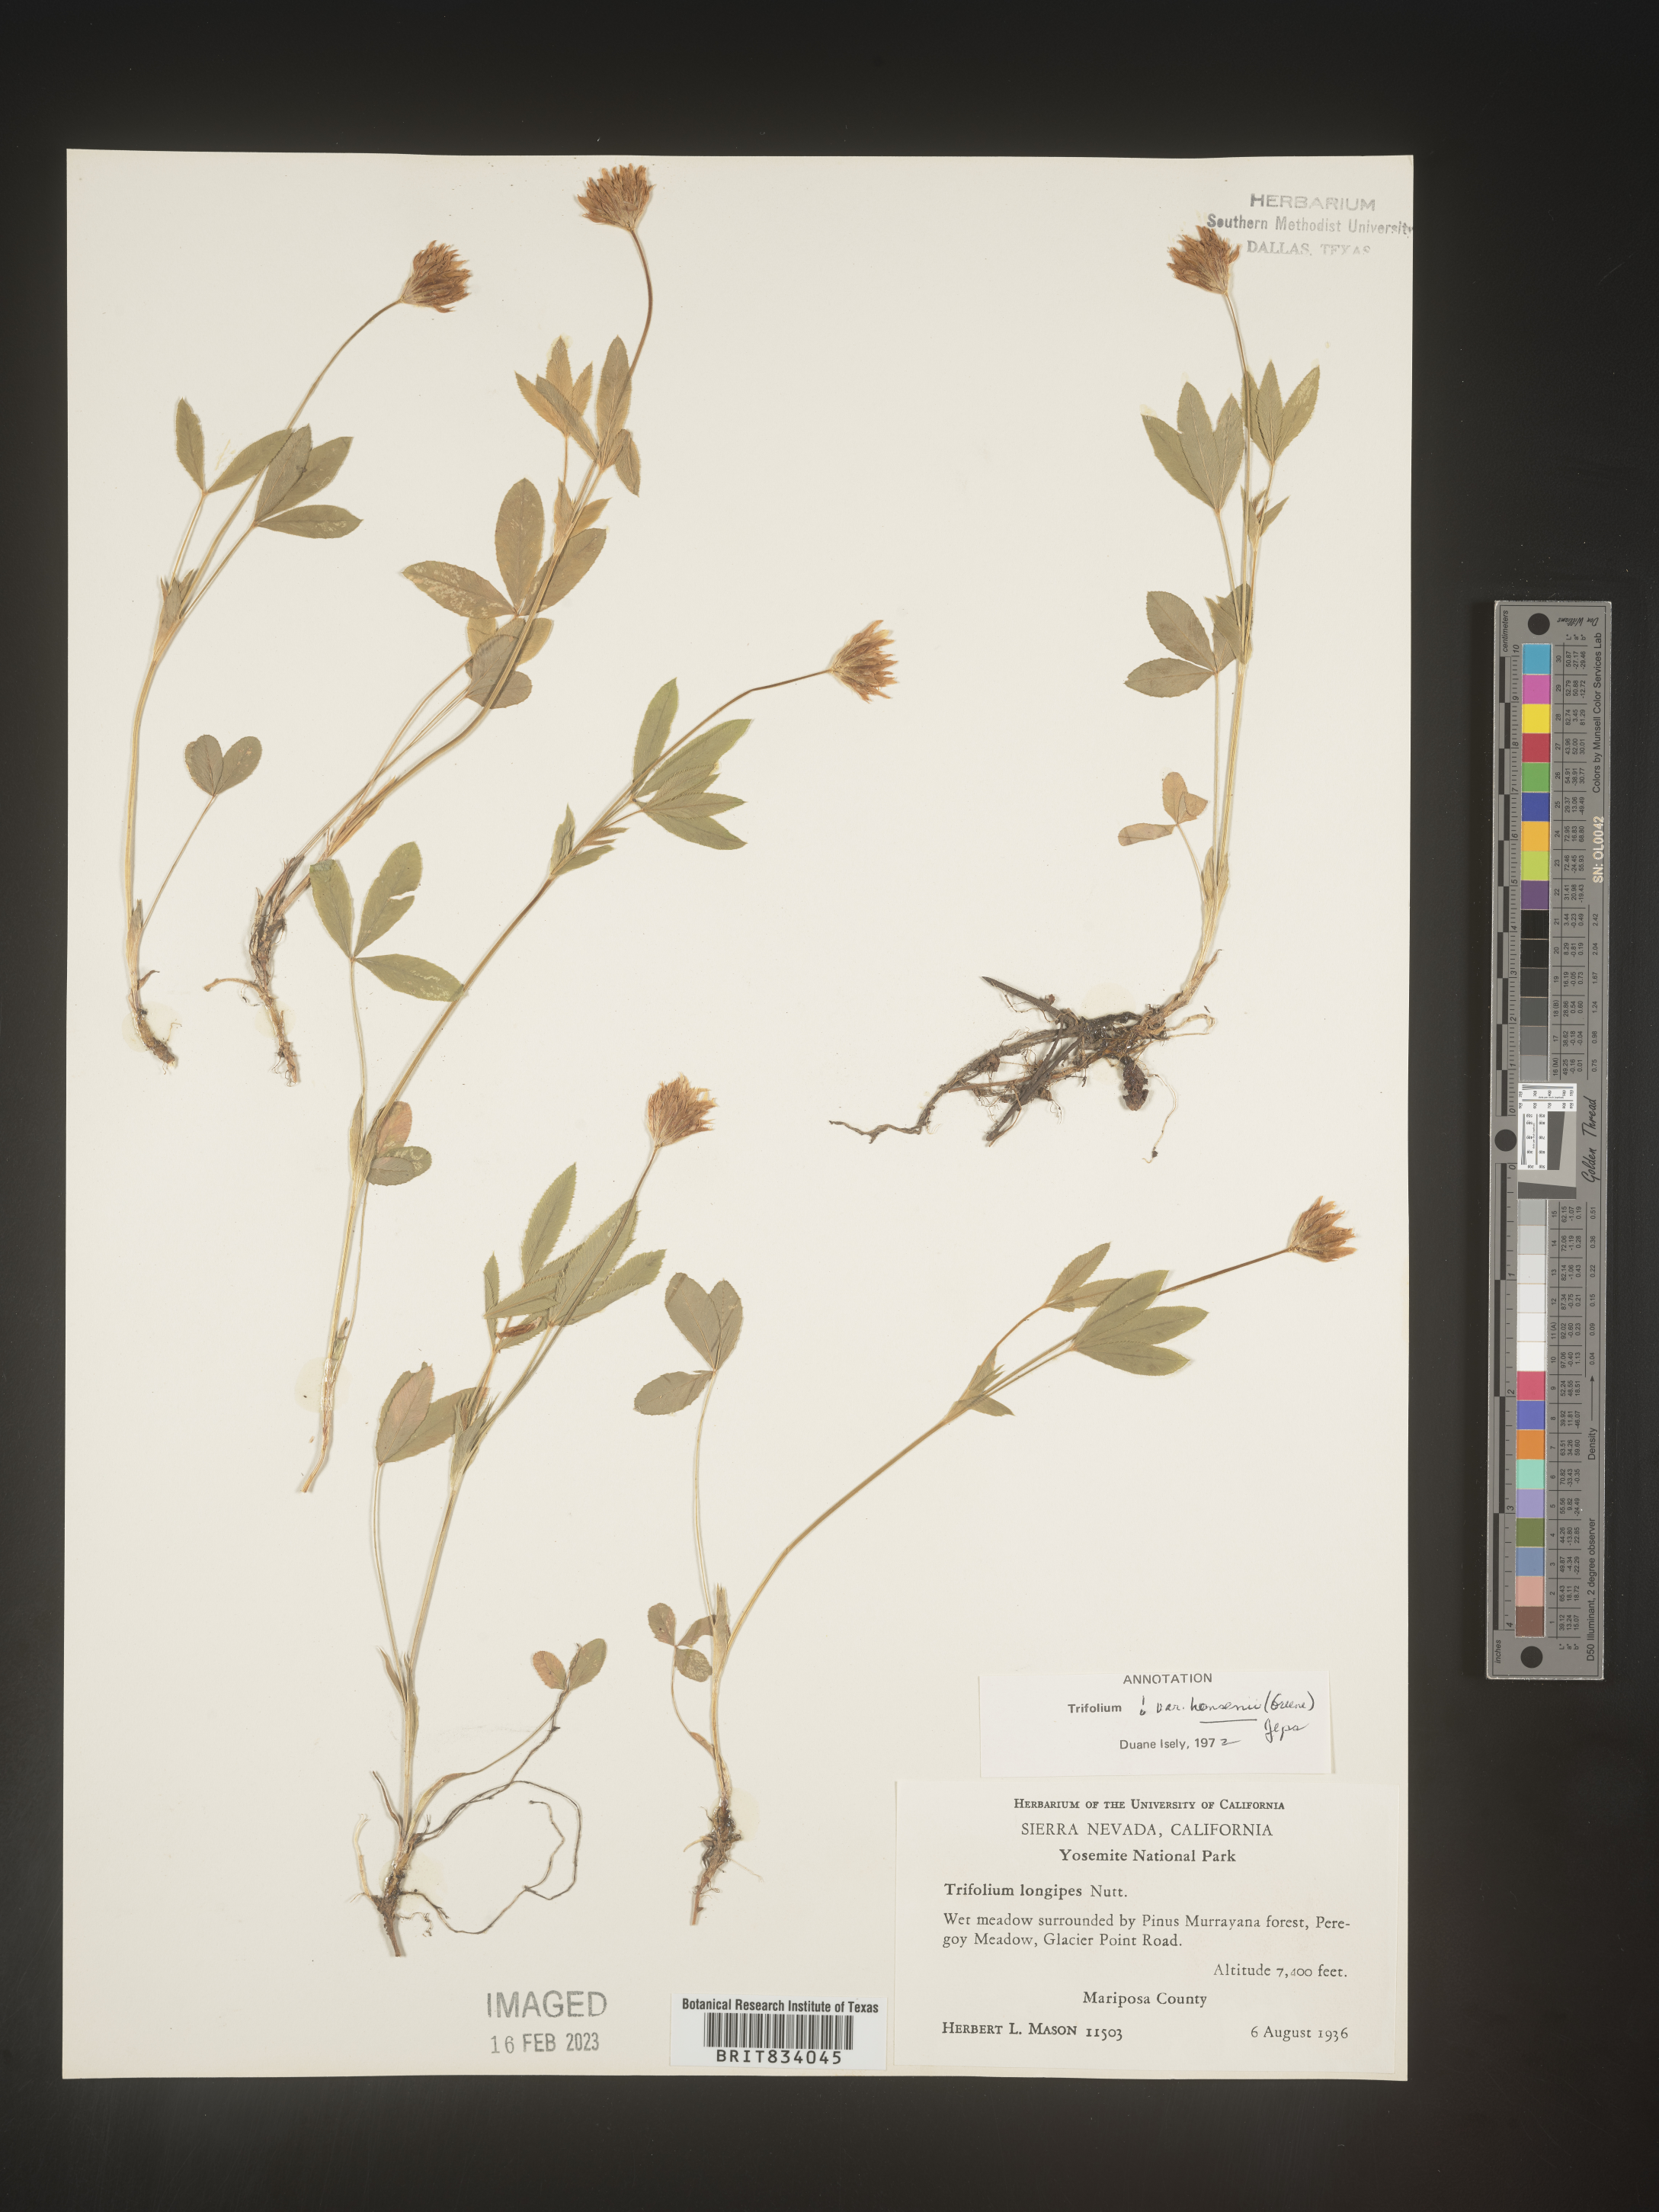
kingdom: Plantae
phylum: Tracheophyta
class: Magnoliopsida
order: Fabales
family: Fabaceae
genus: Trifolium
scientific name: Trifolium
